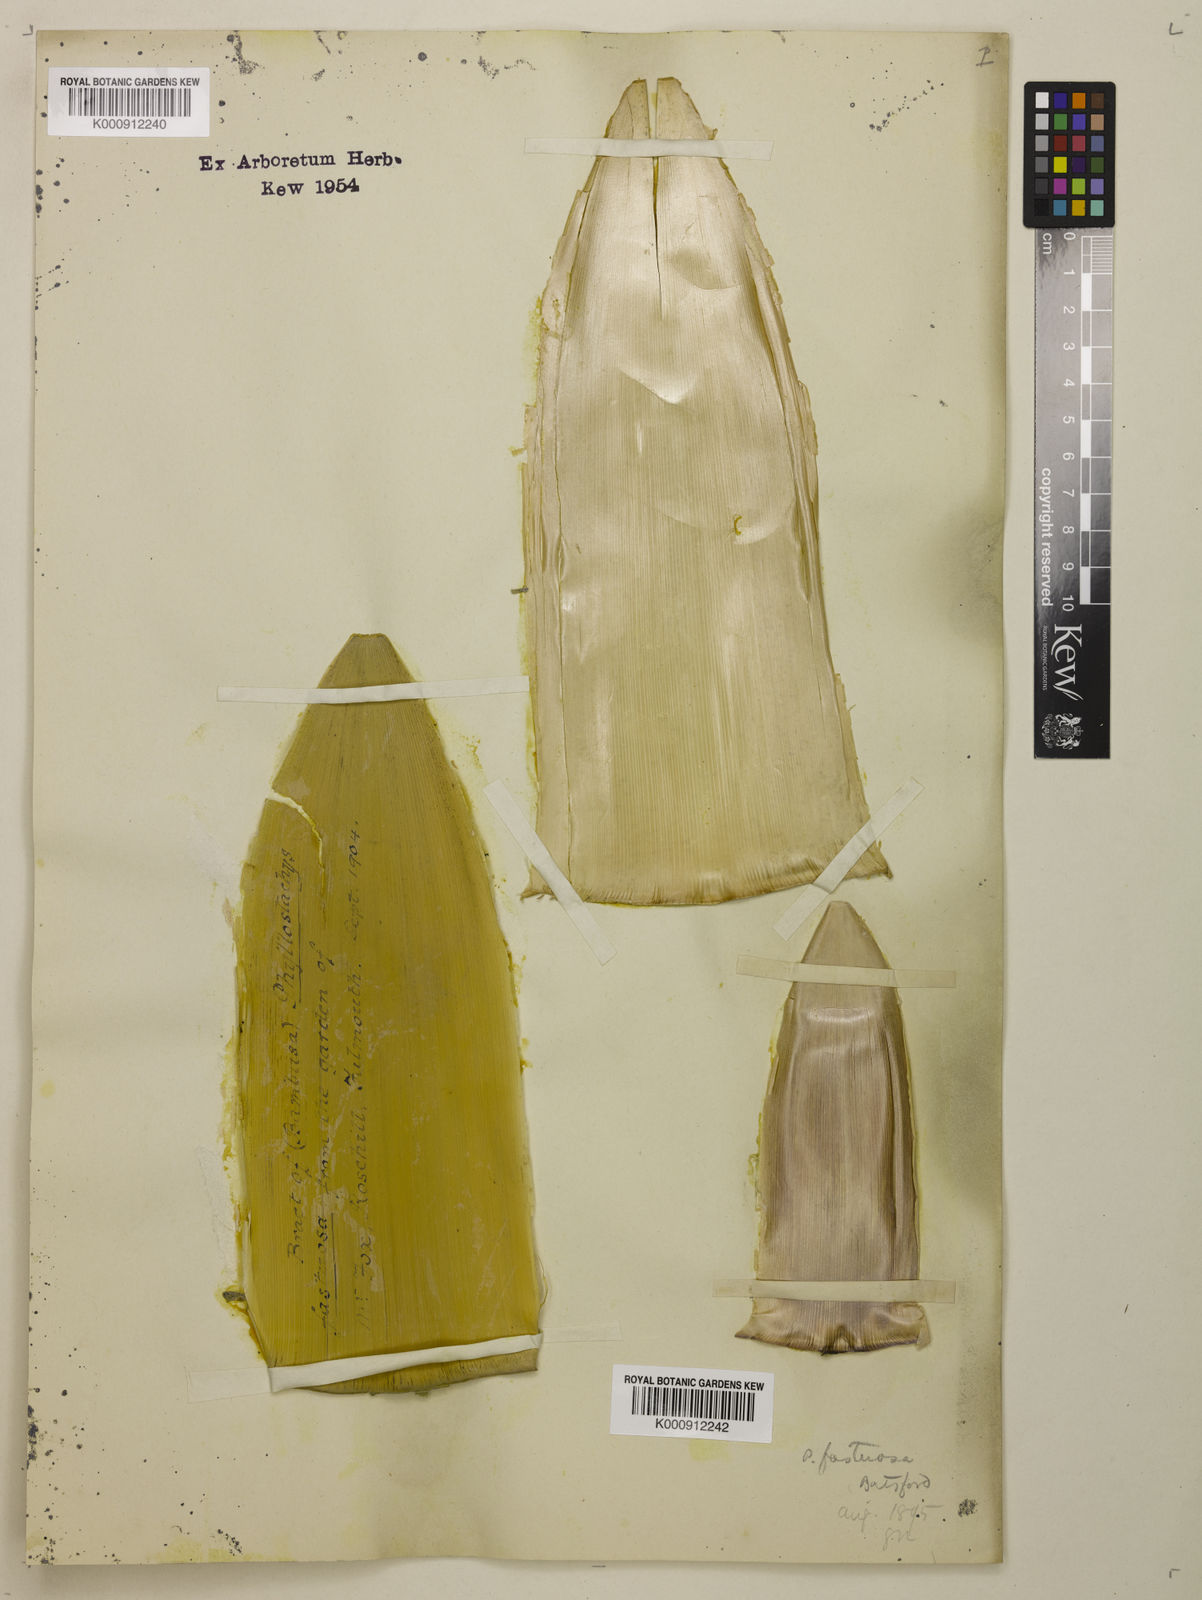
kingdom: Plantae
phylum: Tracheophyta
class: Liliopsida
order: Poales
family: Poaceae
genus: Semiarundinaria
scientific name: Semiarundinaria fastuosa
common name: Narihira bamboo
